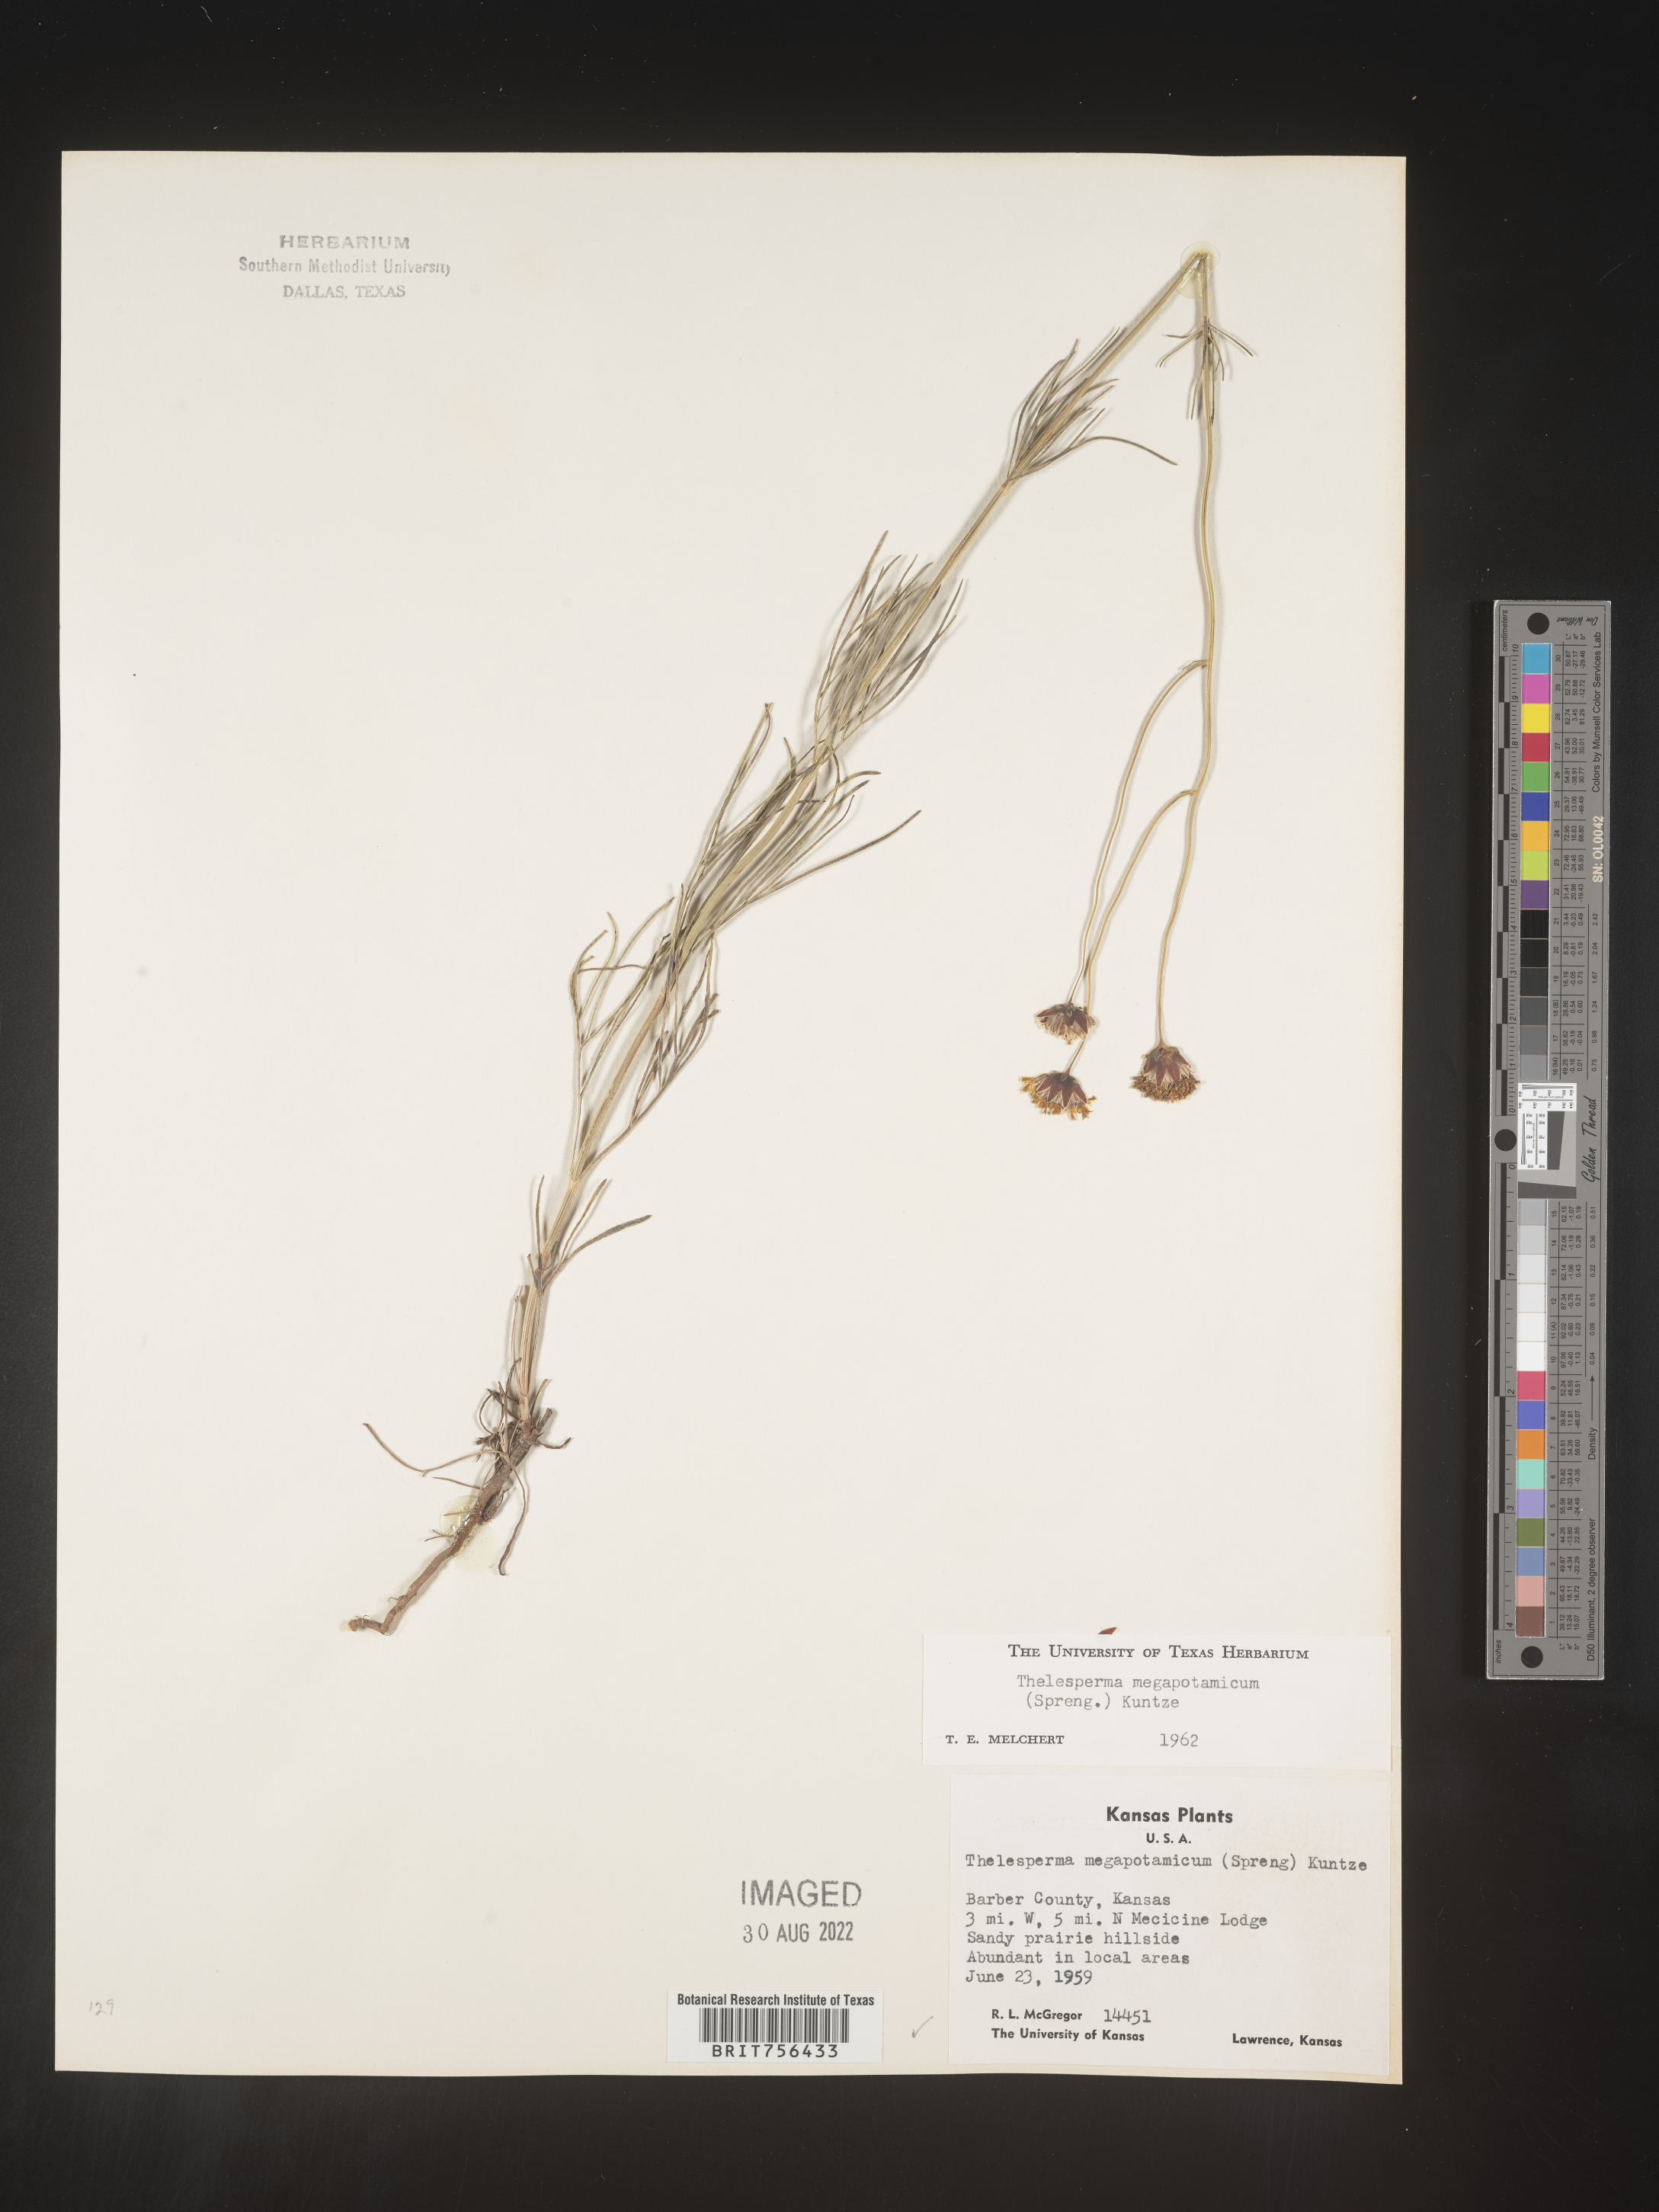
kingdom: Plantae
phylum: Tracheophyta
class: Magnoliopsida
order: Asterales
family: Asteraceae
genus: Thelesperma
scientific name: Thelesperma megapotamicum
